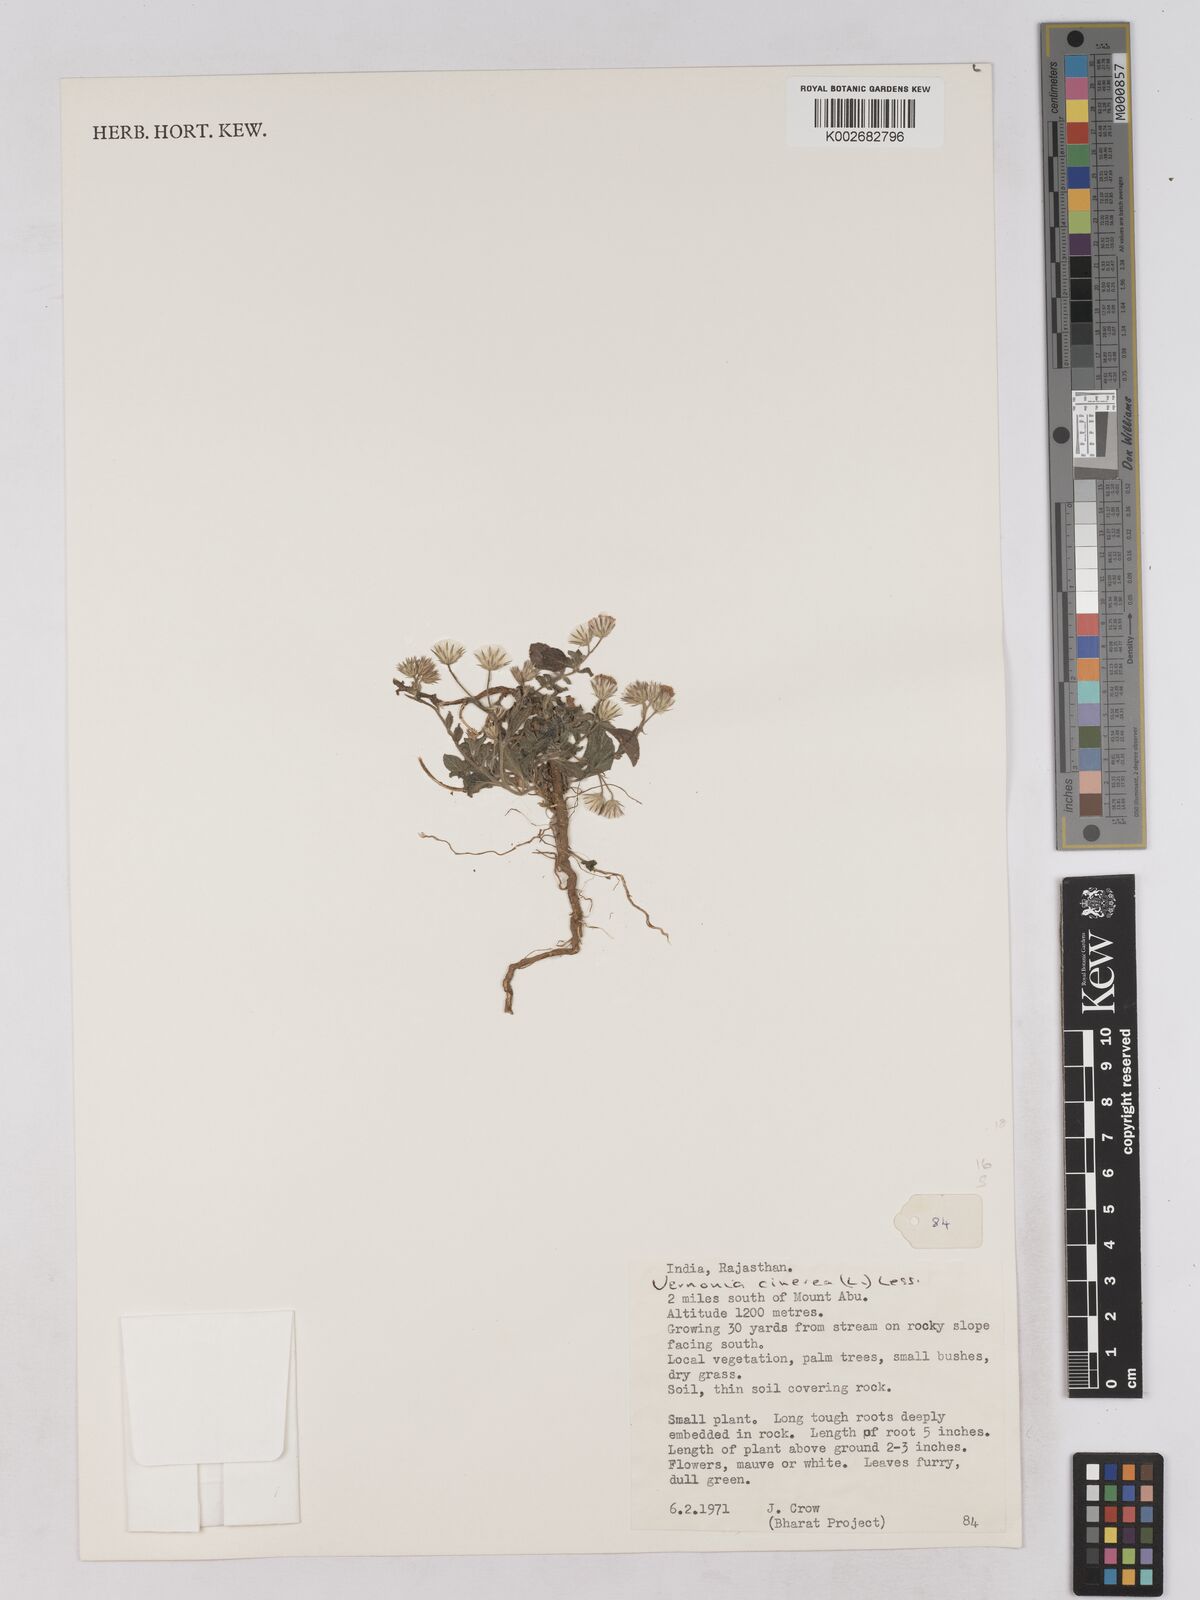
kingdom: Plantae
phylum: Tracheophyta
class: Magnoliopsida
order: Asterales
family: Asteraceae
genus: Cyanthillium
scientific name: Cyanthillium cinereum
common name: Little ironweed
